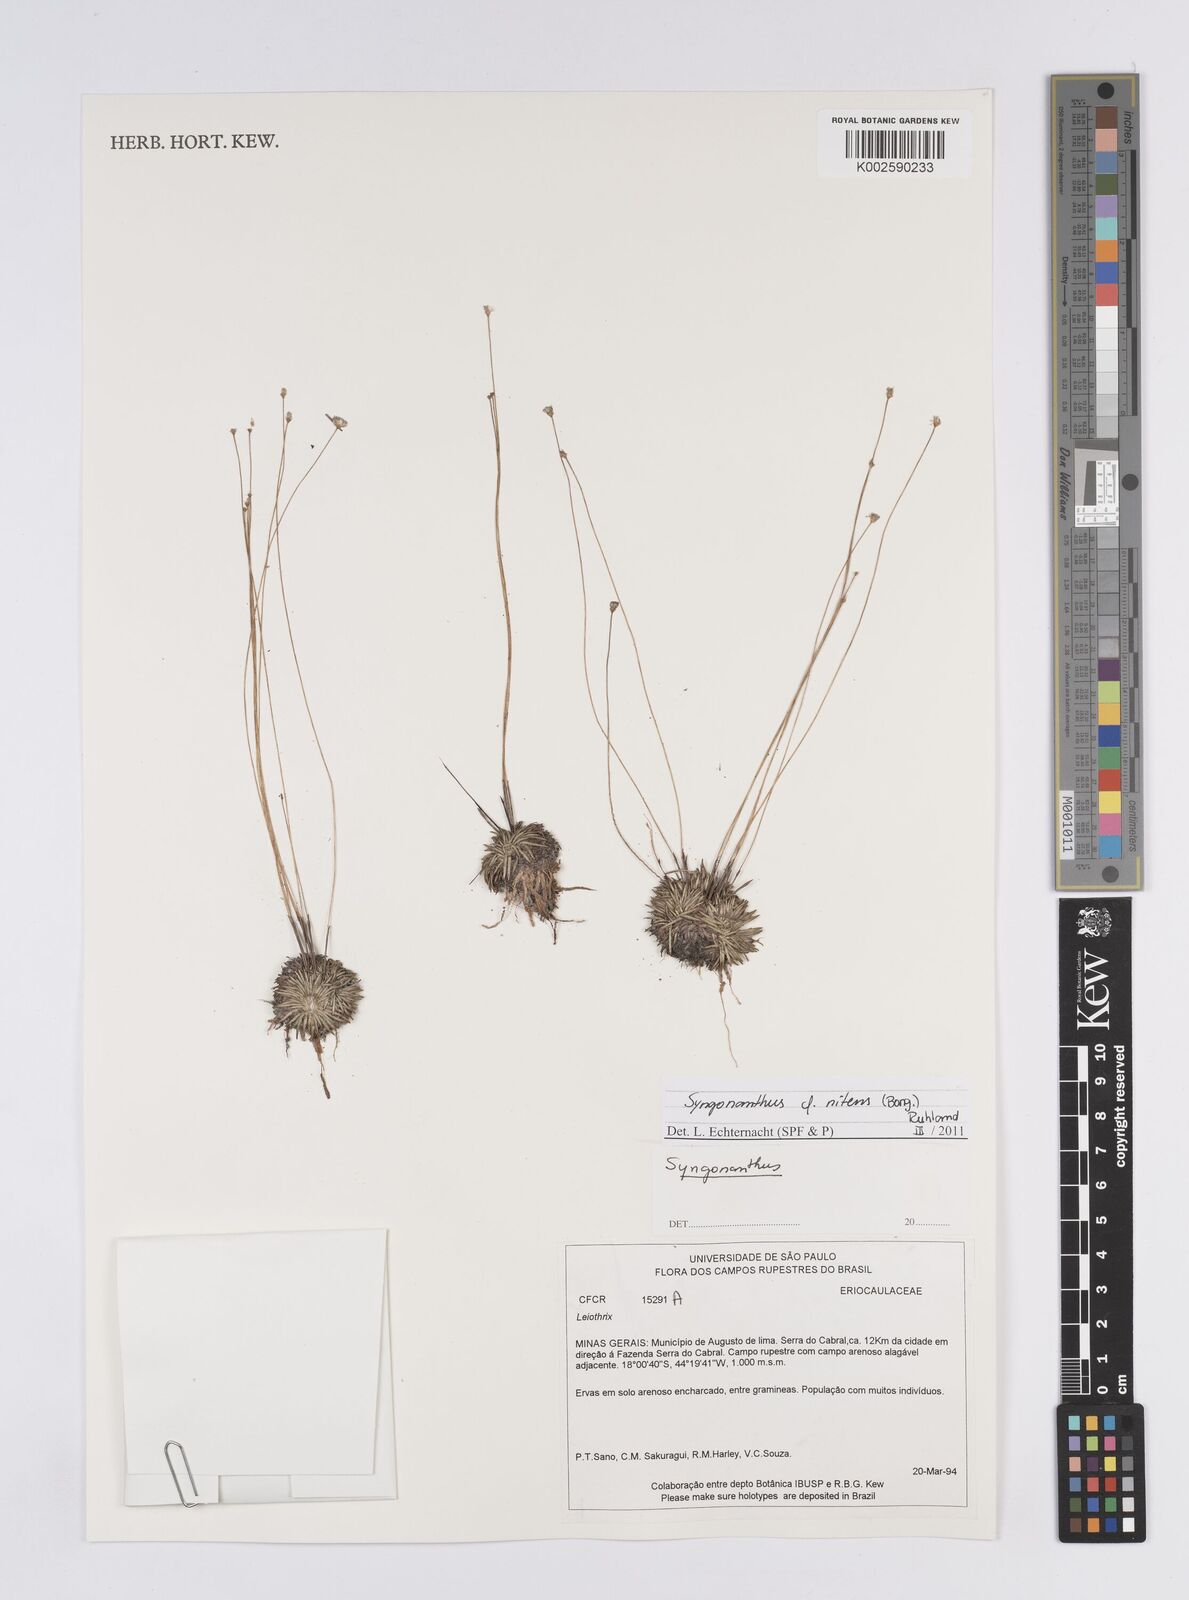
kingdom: Plantae
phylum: Tracheophyta
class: Liliopsida
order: Poales
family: Eriocaulaceae
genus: Syngonanthus
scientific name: Syngonanthus nitens
